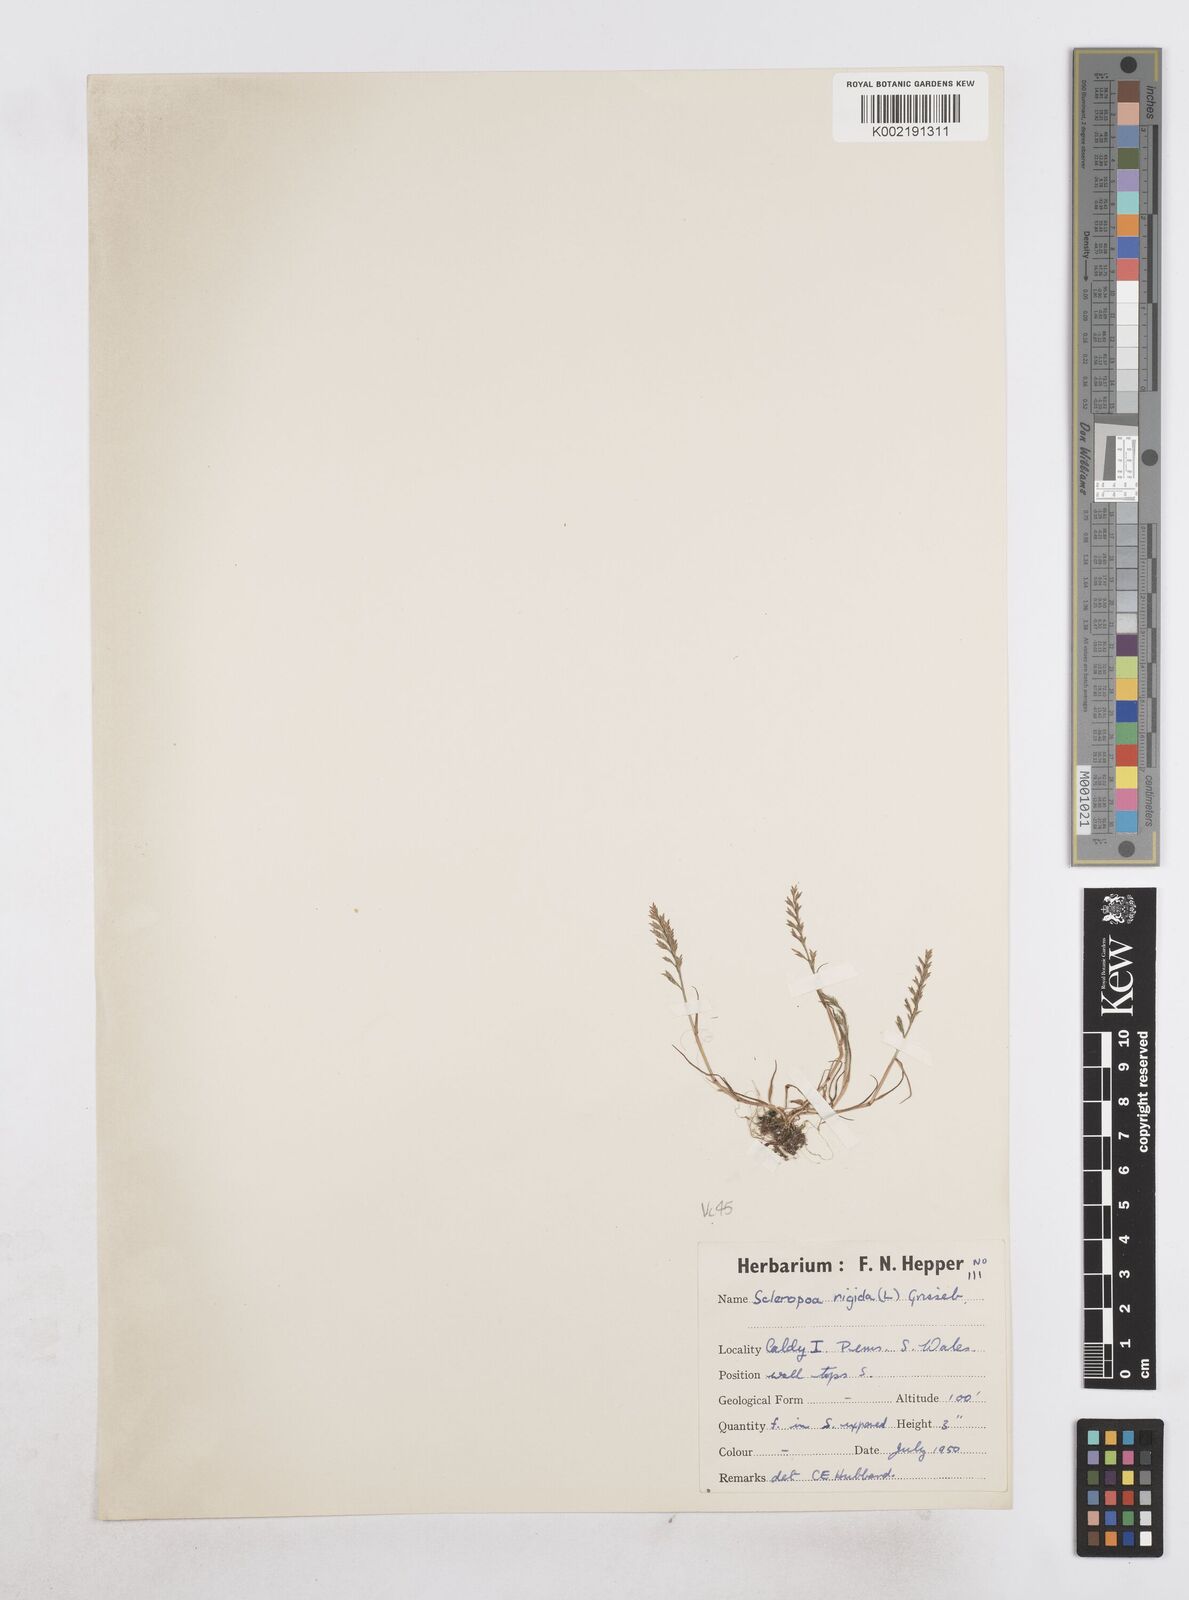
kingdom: Plantae
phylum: Tracheophyta
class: Liliopsida
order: Poales
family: Poaceae
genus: Catapodium
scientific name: Catapodium rigidum
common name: Fern-grass
